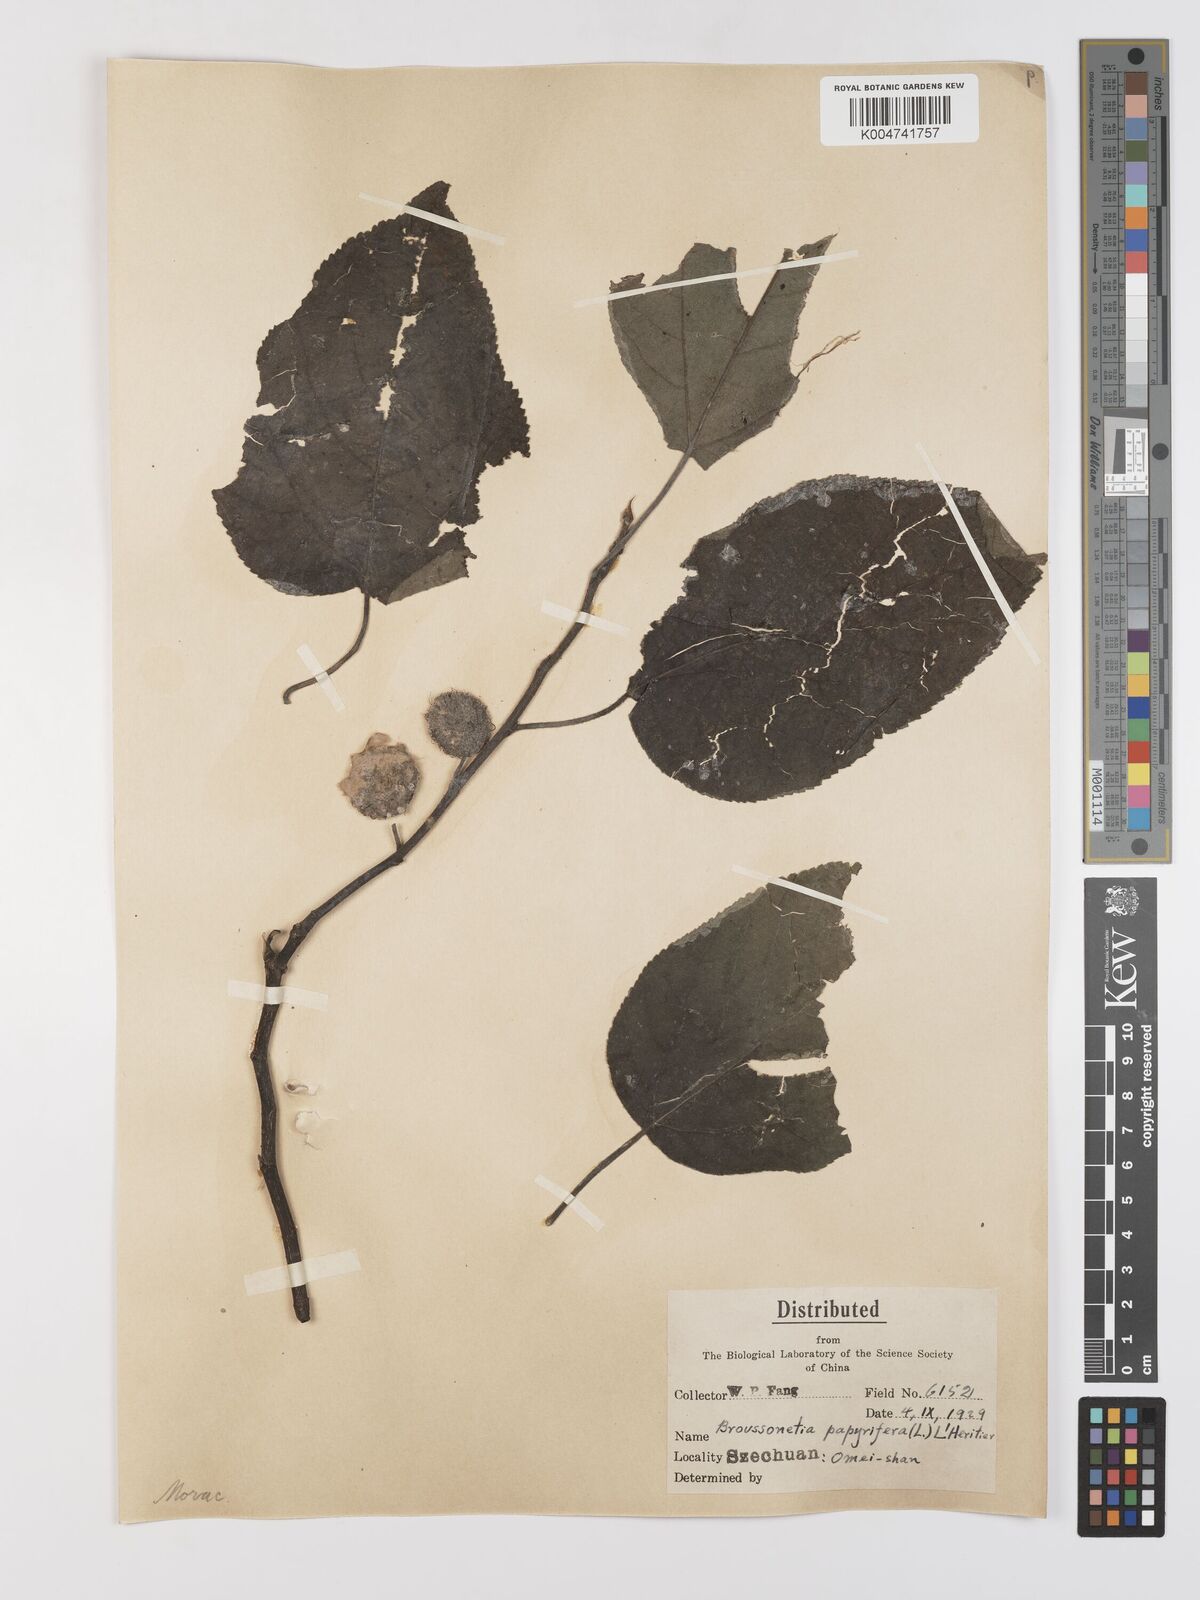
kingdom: Plantae
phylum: Tracheophyta
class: Magnoliopsida
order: Rosales
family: Moraceae
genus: Broussonetia
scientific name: Broussonetia
